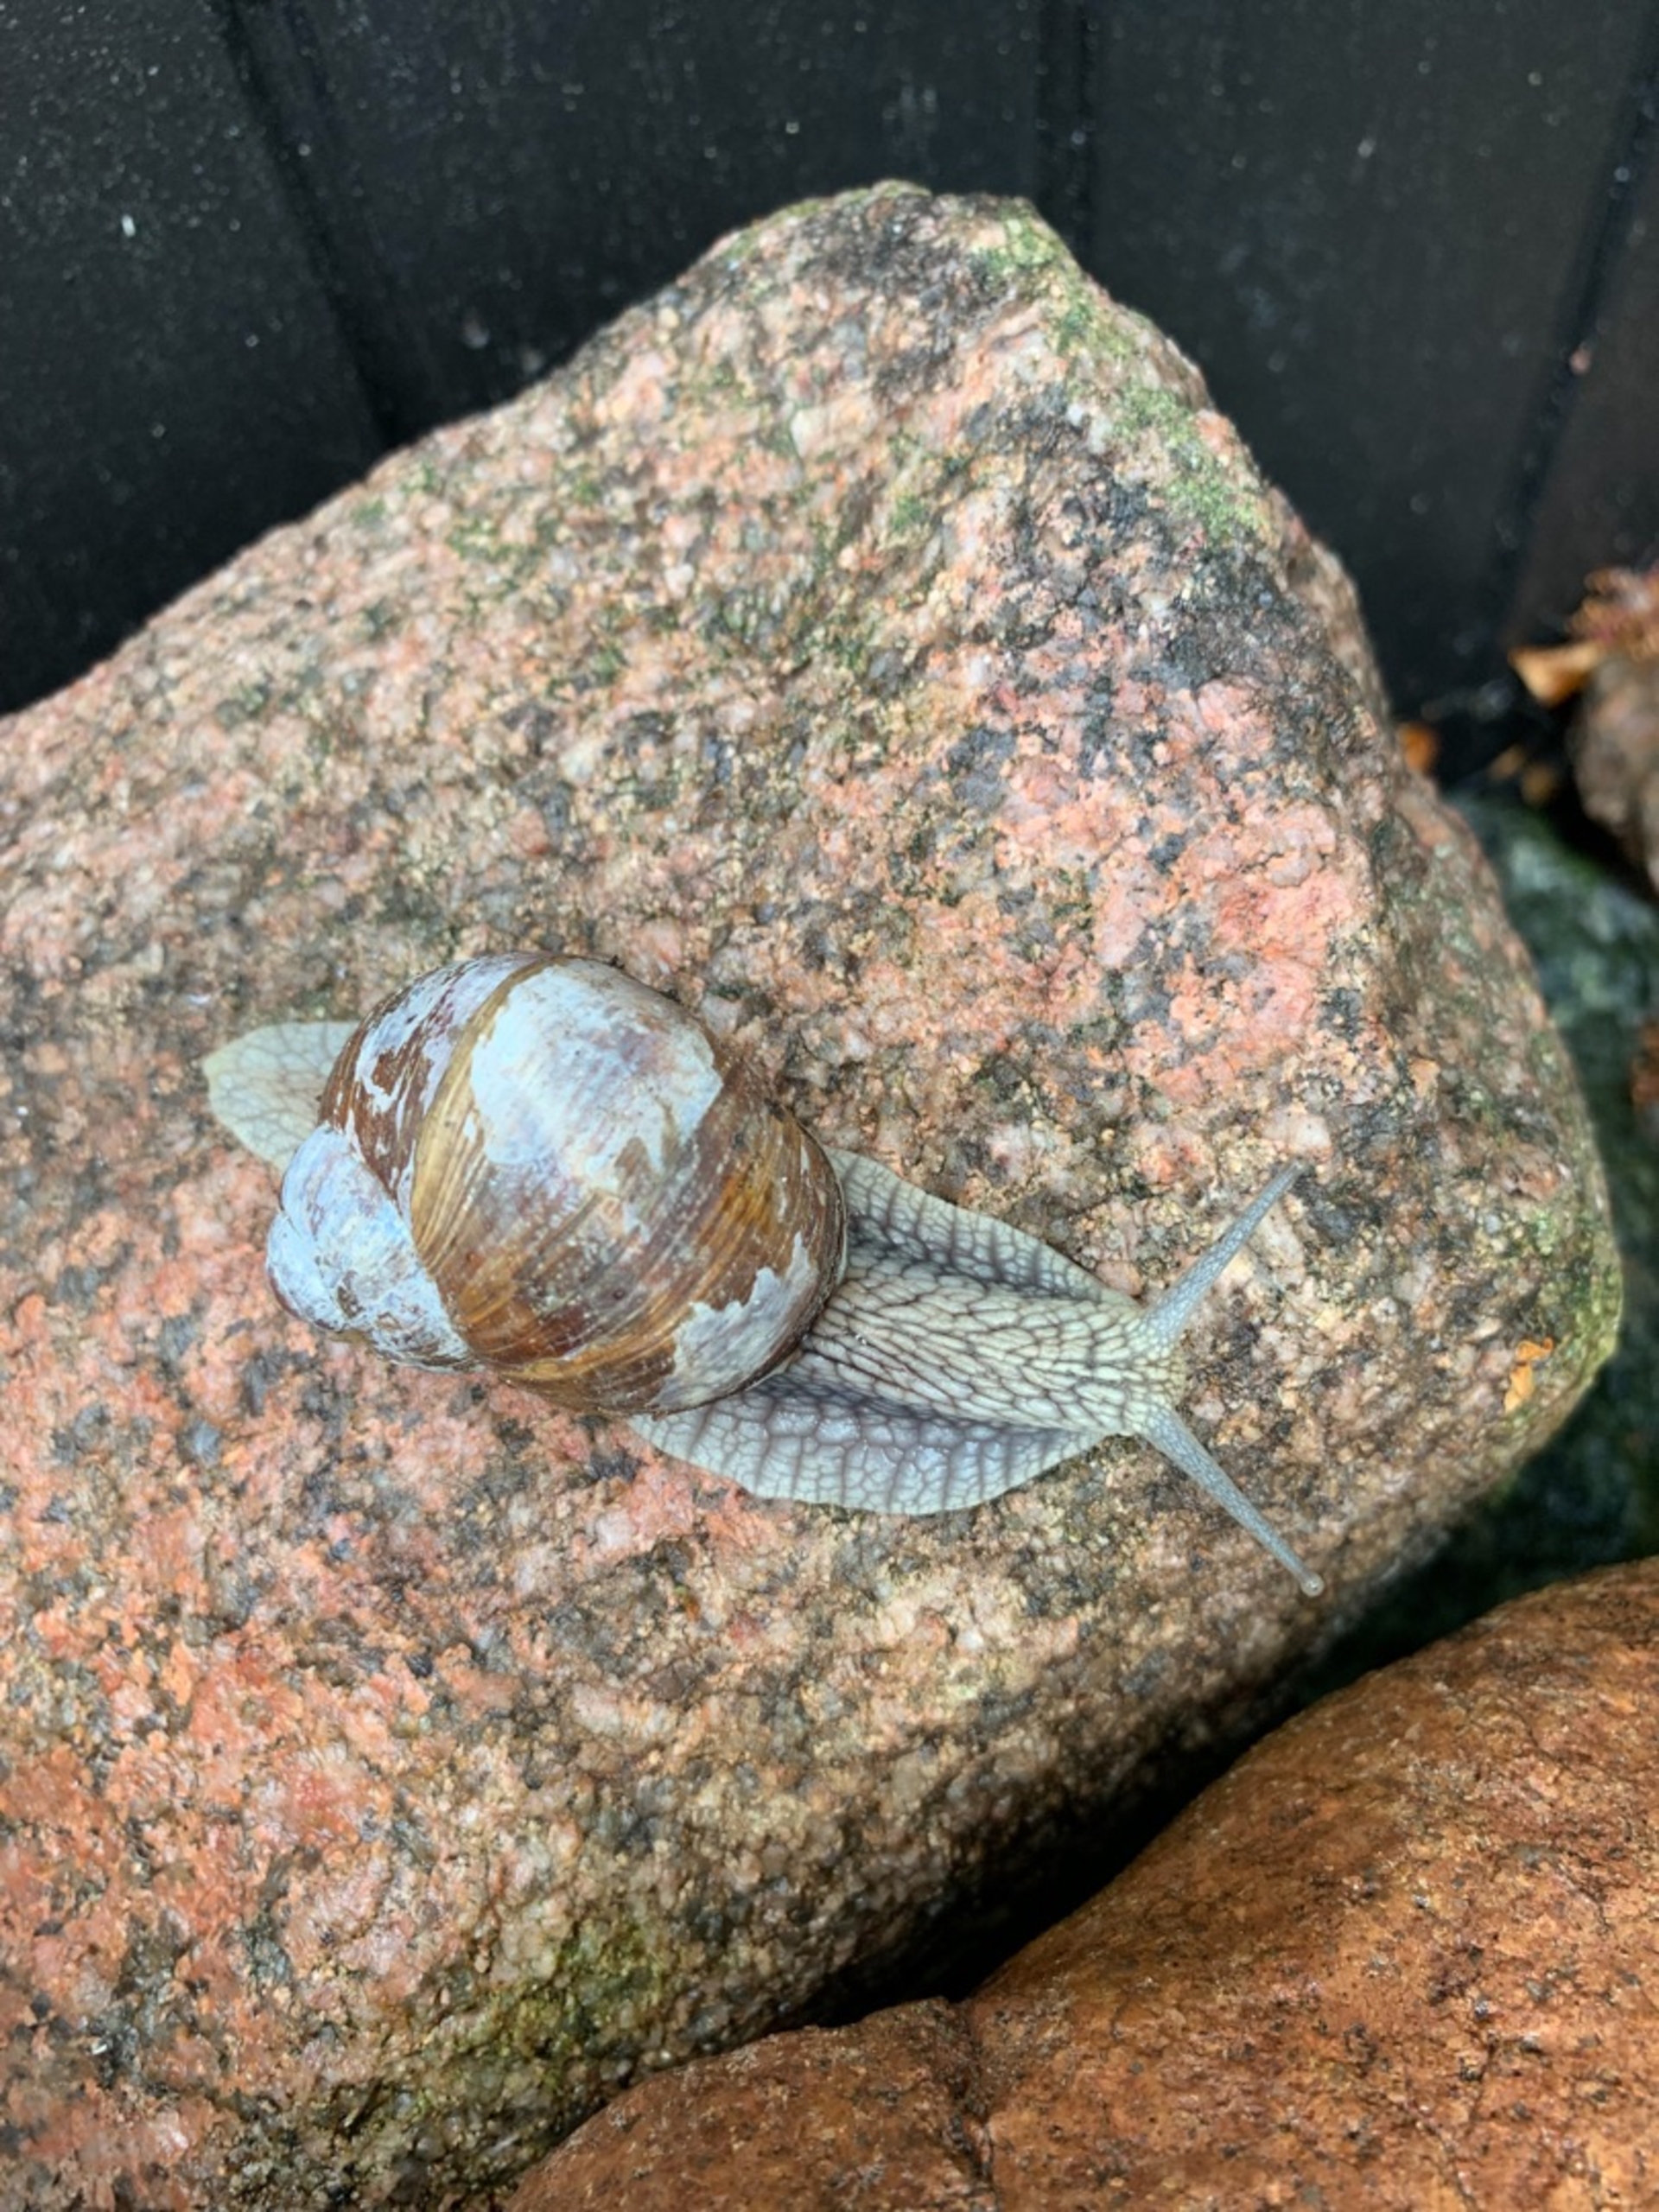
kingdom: Animalia
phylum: Mollusca
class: Gastropoda
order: Stylommatophora
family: Helicidae
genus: Helix
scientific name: Helix pomatia
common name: Vinbjergsnegl
